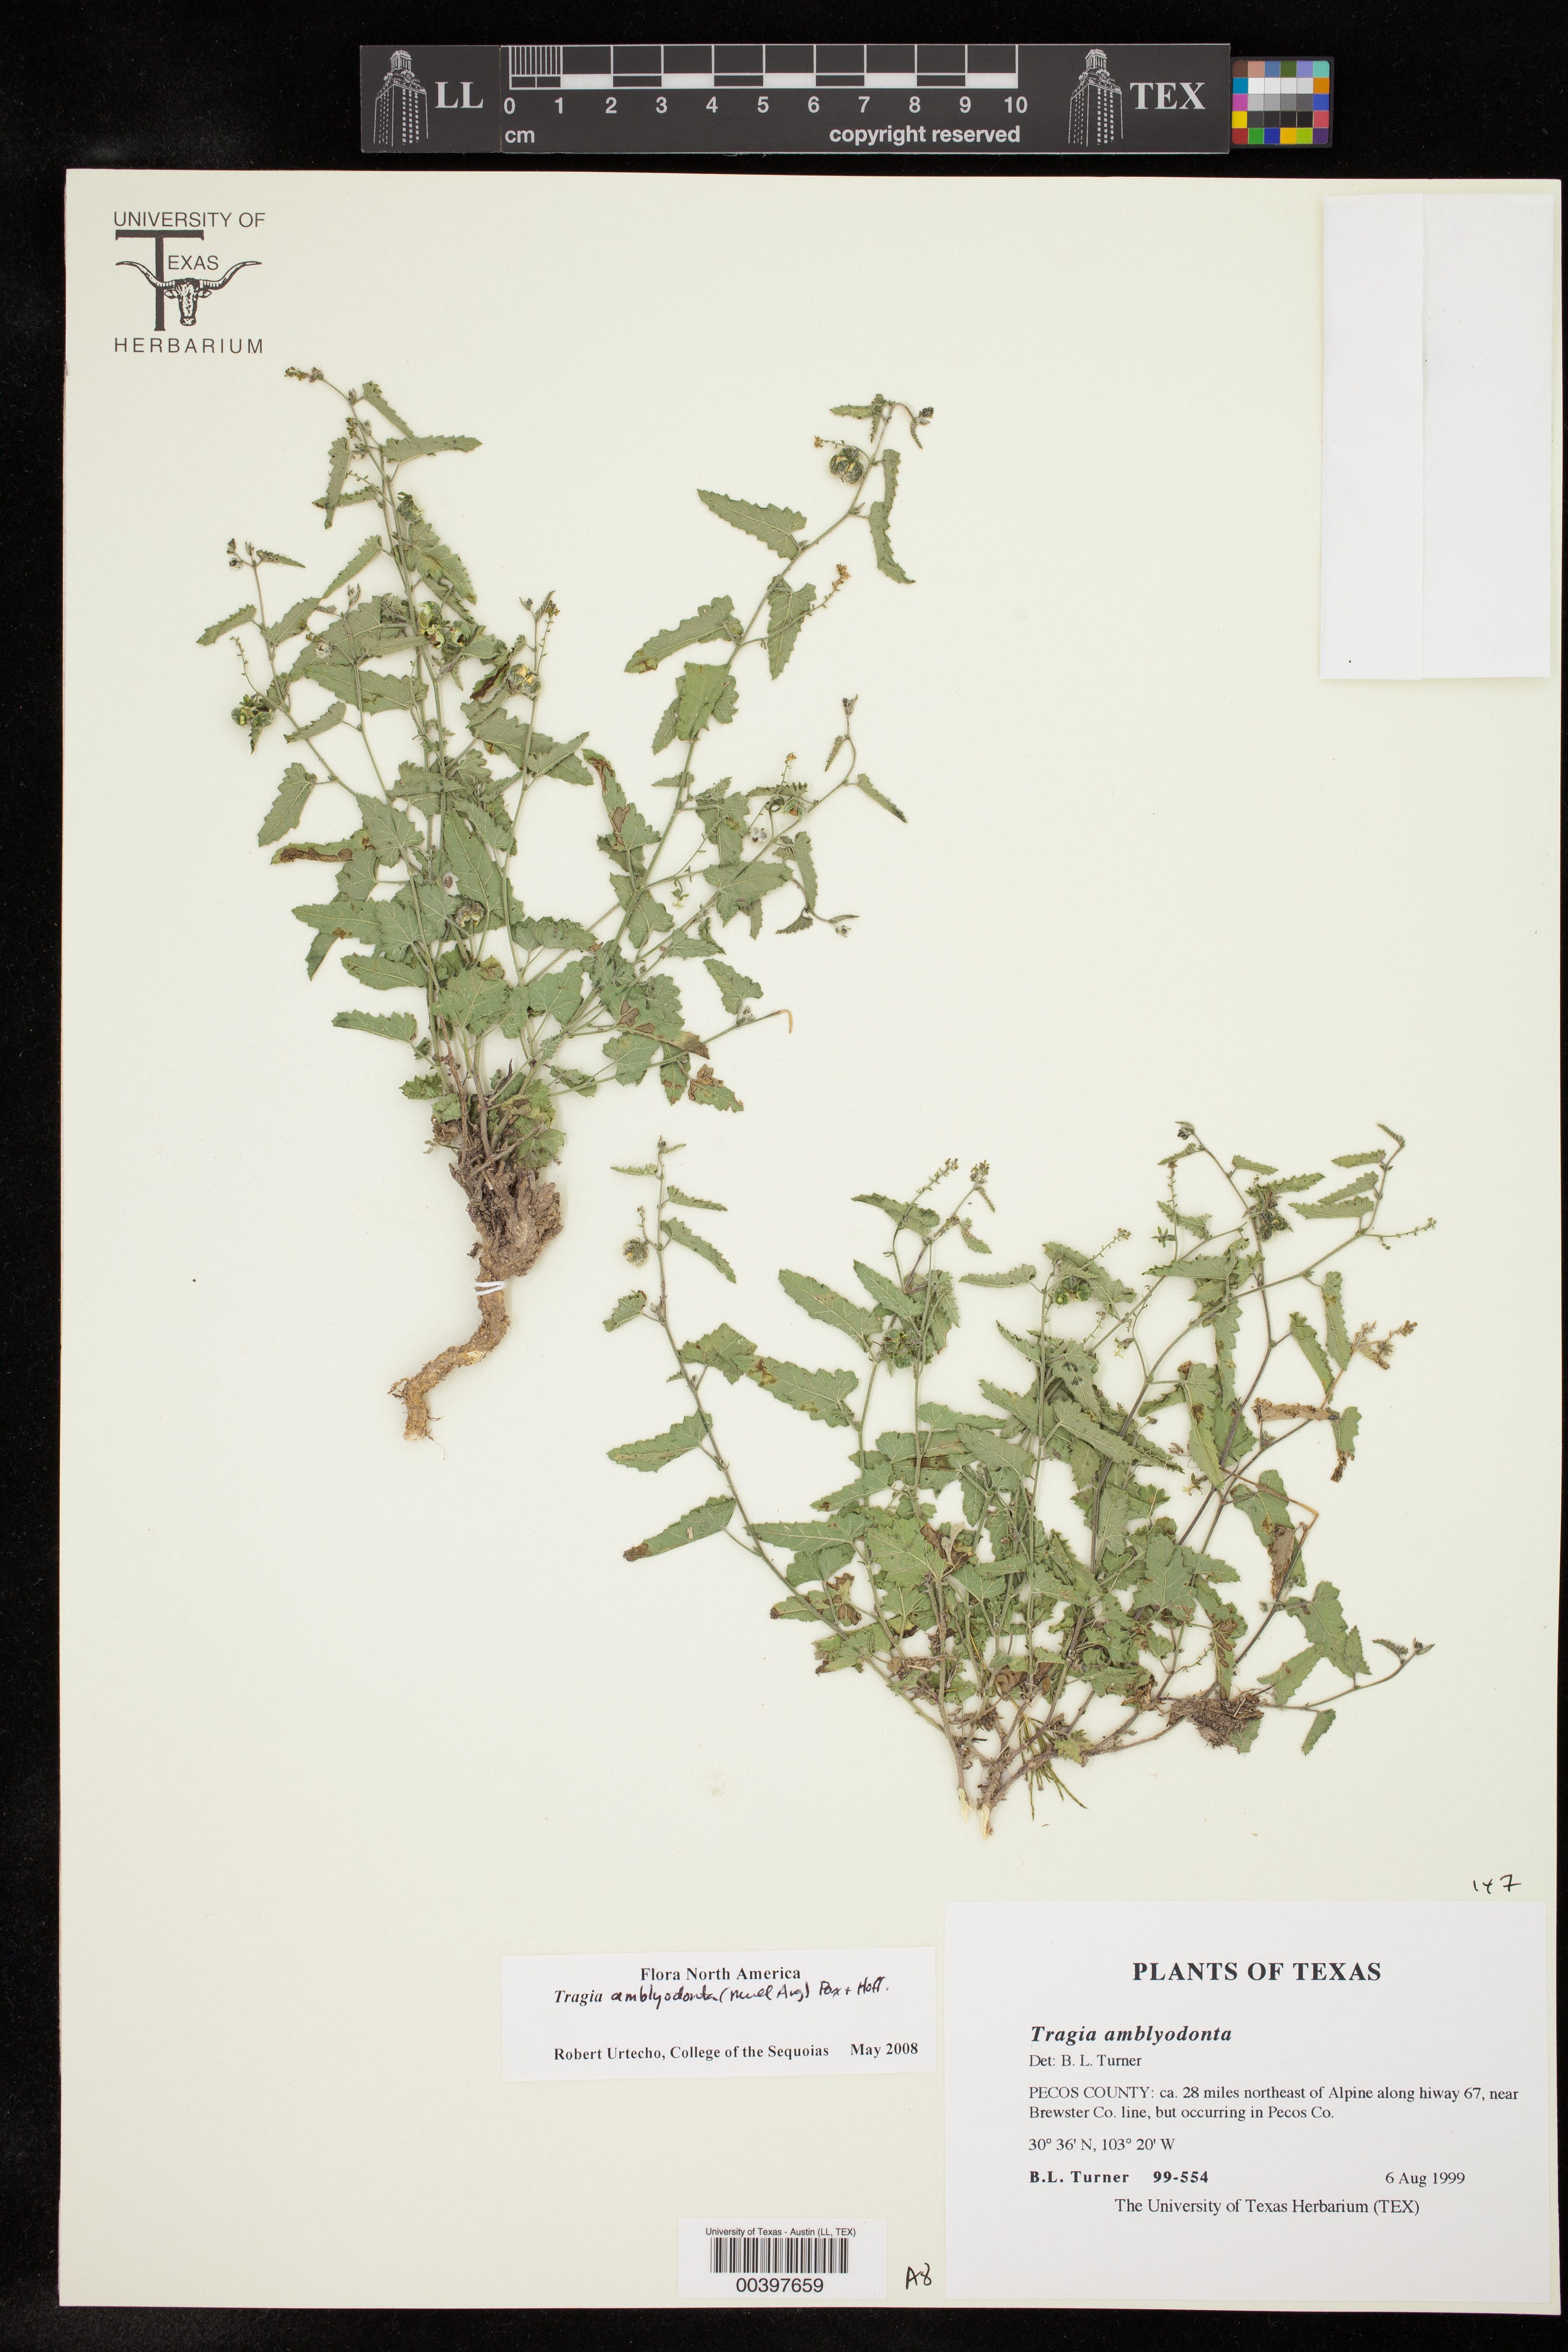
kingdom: Plantae
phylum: Tracheophyta
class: Magnoliopsida
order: Malpighiales
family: Euphorbiaceae
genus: Tragia
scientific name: Tragia amblyodonta
